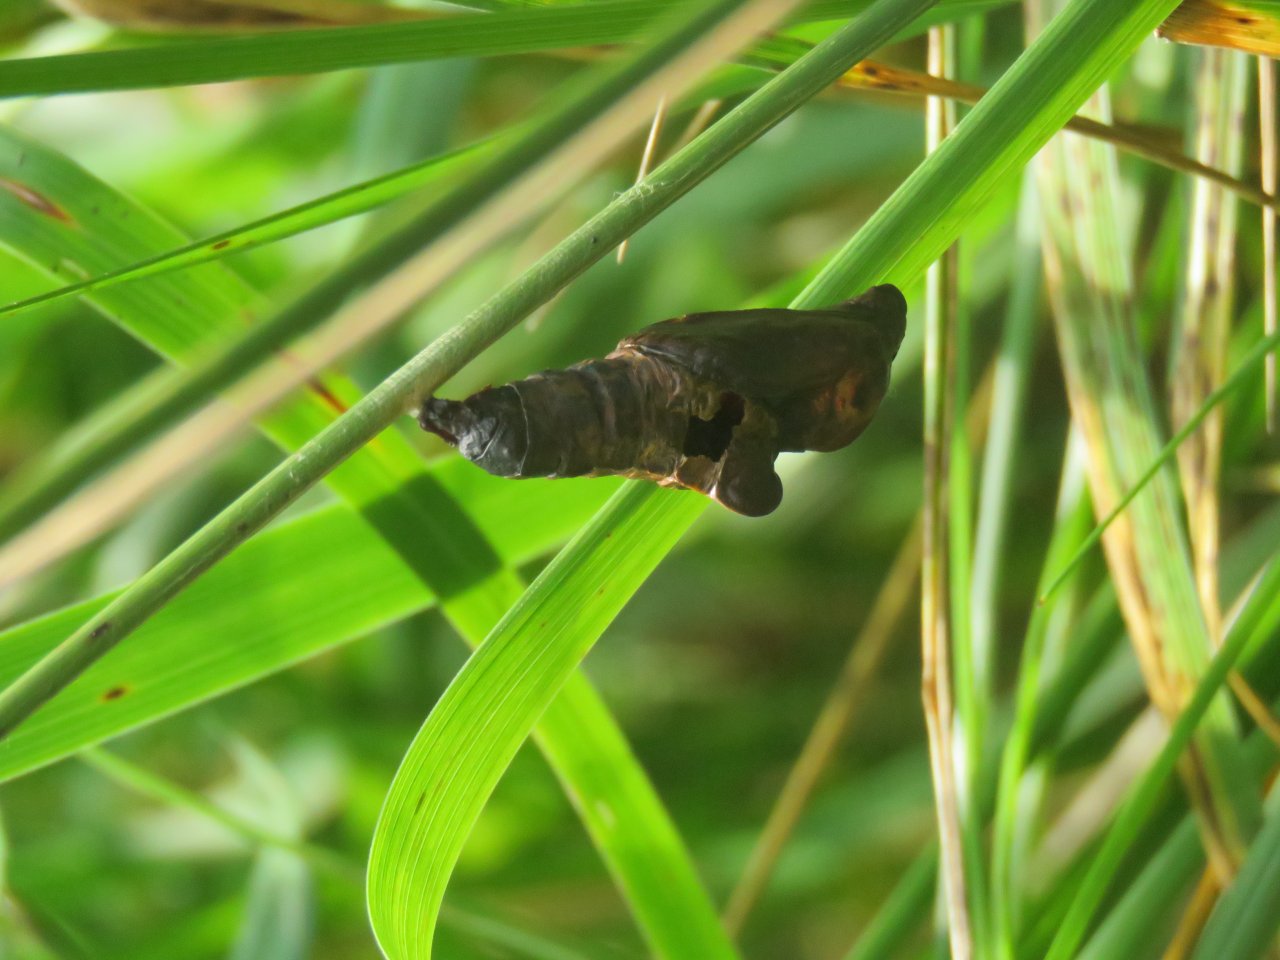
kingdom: Animalia
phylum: Arthropoda
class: Insecta
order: Lepidoptera
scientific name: Lepidoptera
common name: Butterflies
